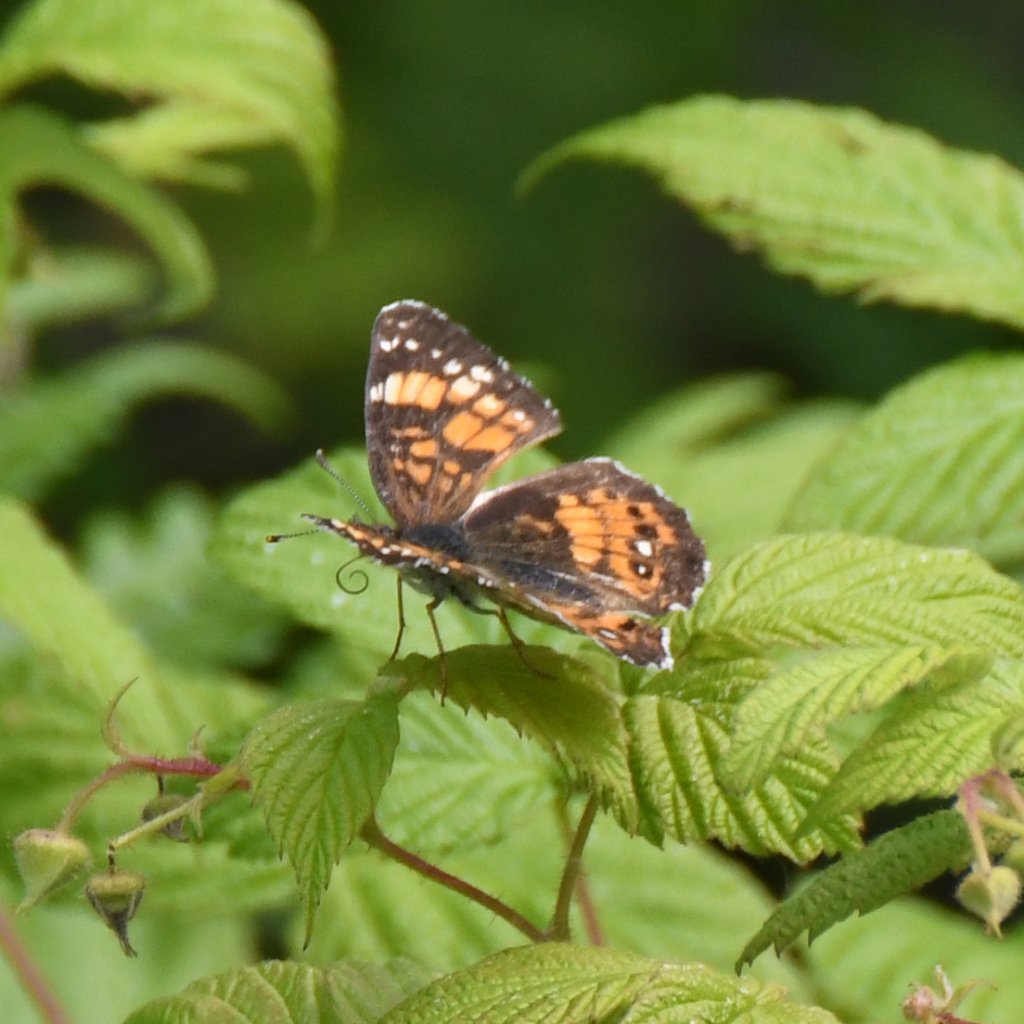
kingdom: Animalia
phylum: Arthropoda
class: Insecta
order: Lepidoptera
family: Nymphalidae
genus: Chlosyne
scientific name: Chlosyne nycteis
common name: Silvery Checkerspot
